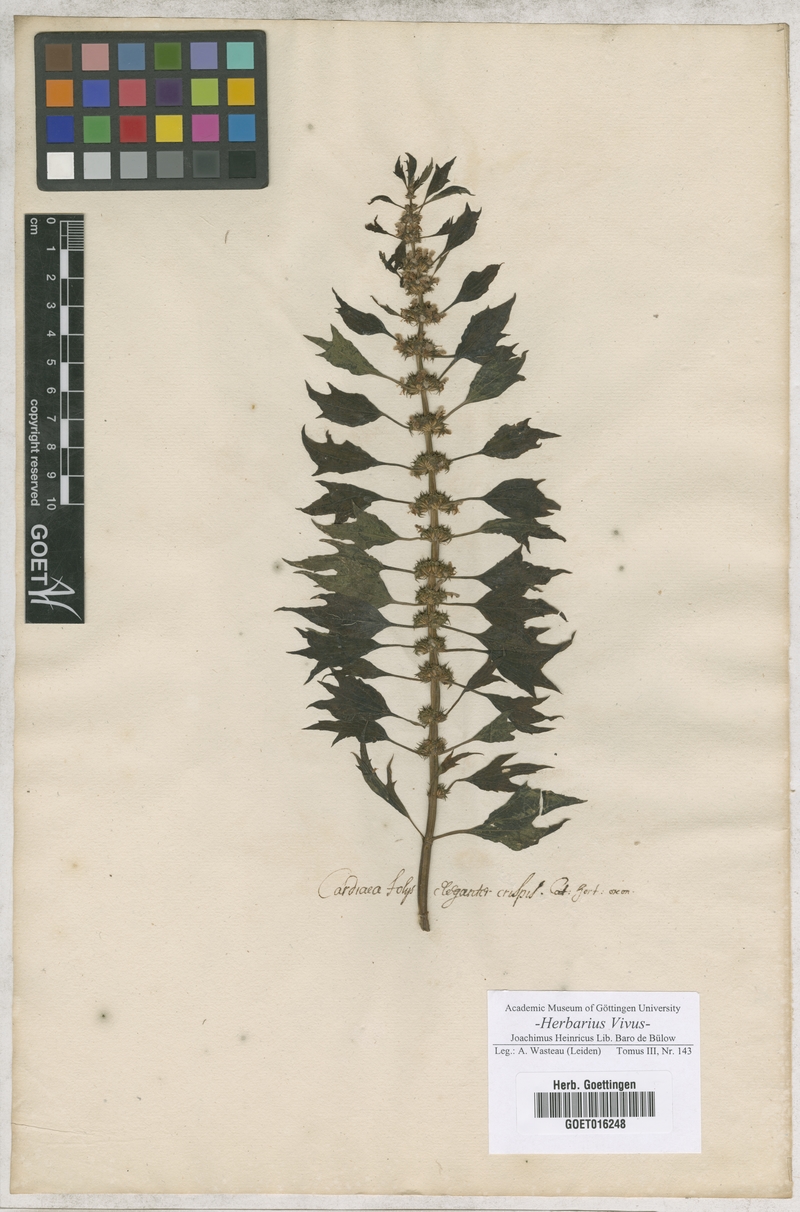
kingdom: Plantae
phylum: Tracheophyta
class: Magnoliopsida
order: Lamiales
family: Lamiaceae
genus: Leonurus
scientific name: Leonurus cardiaca
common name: Motherwort
